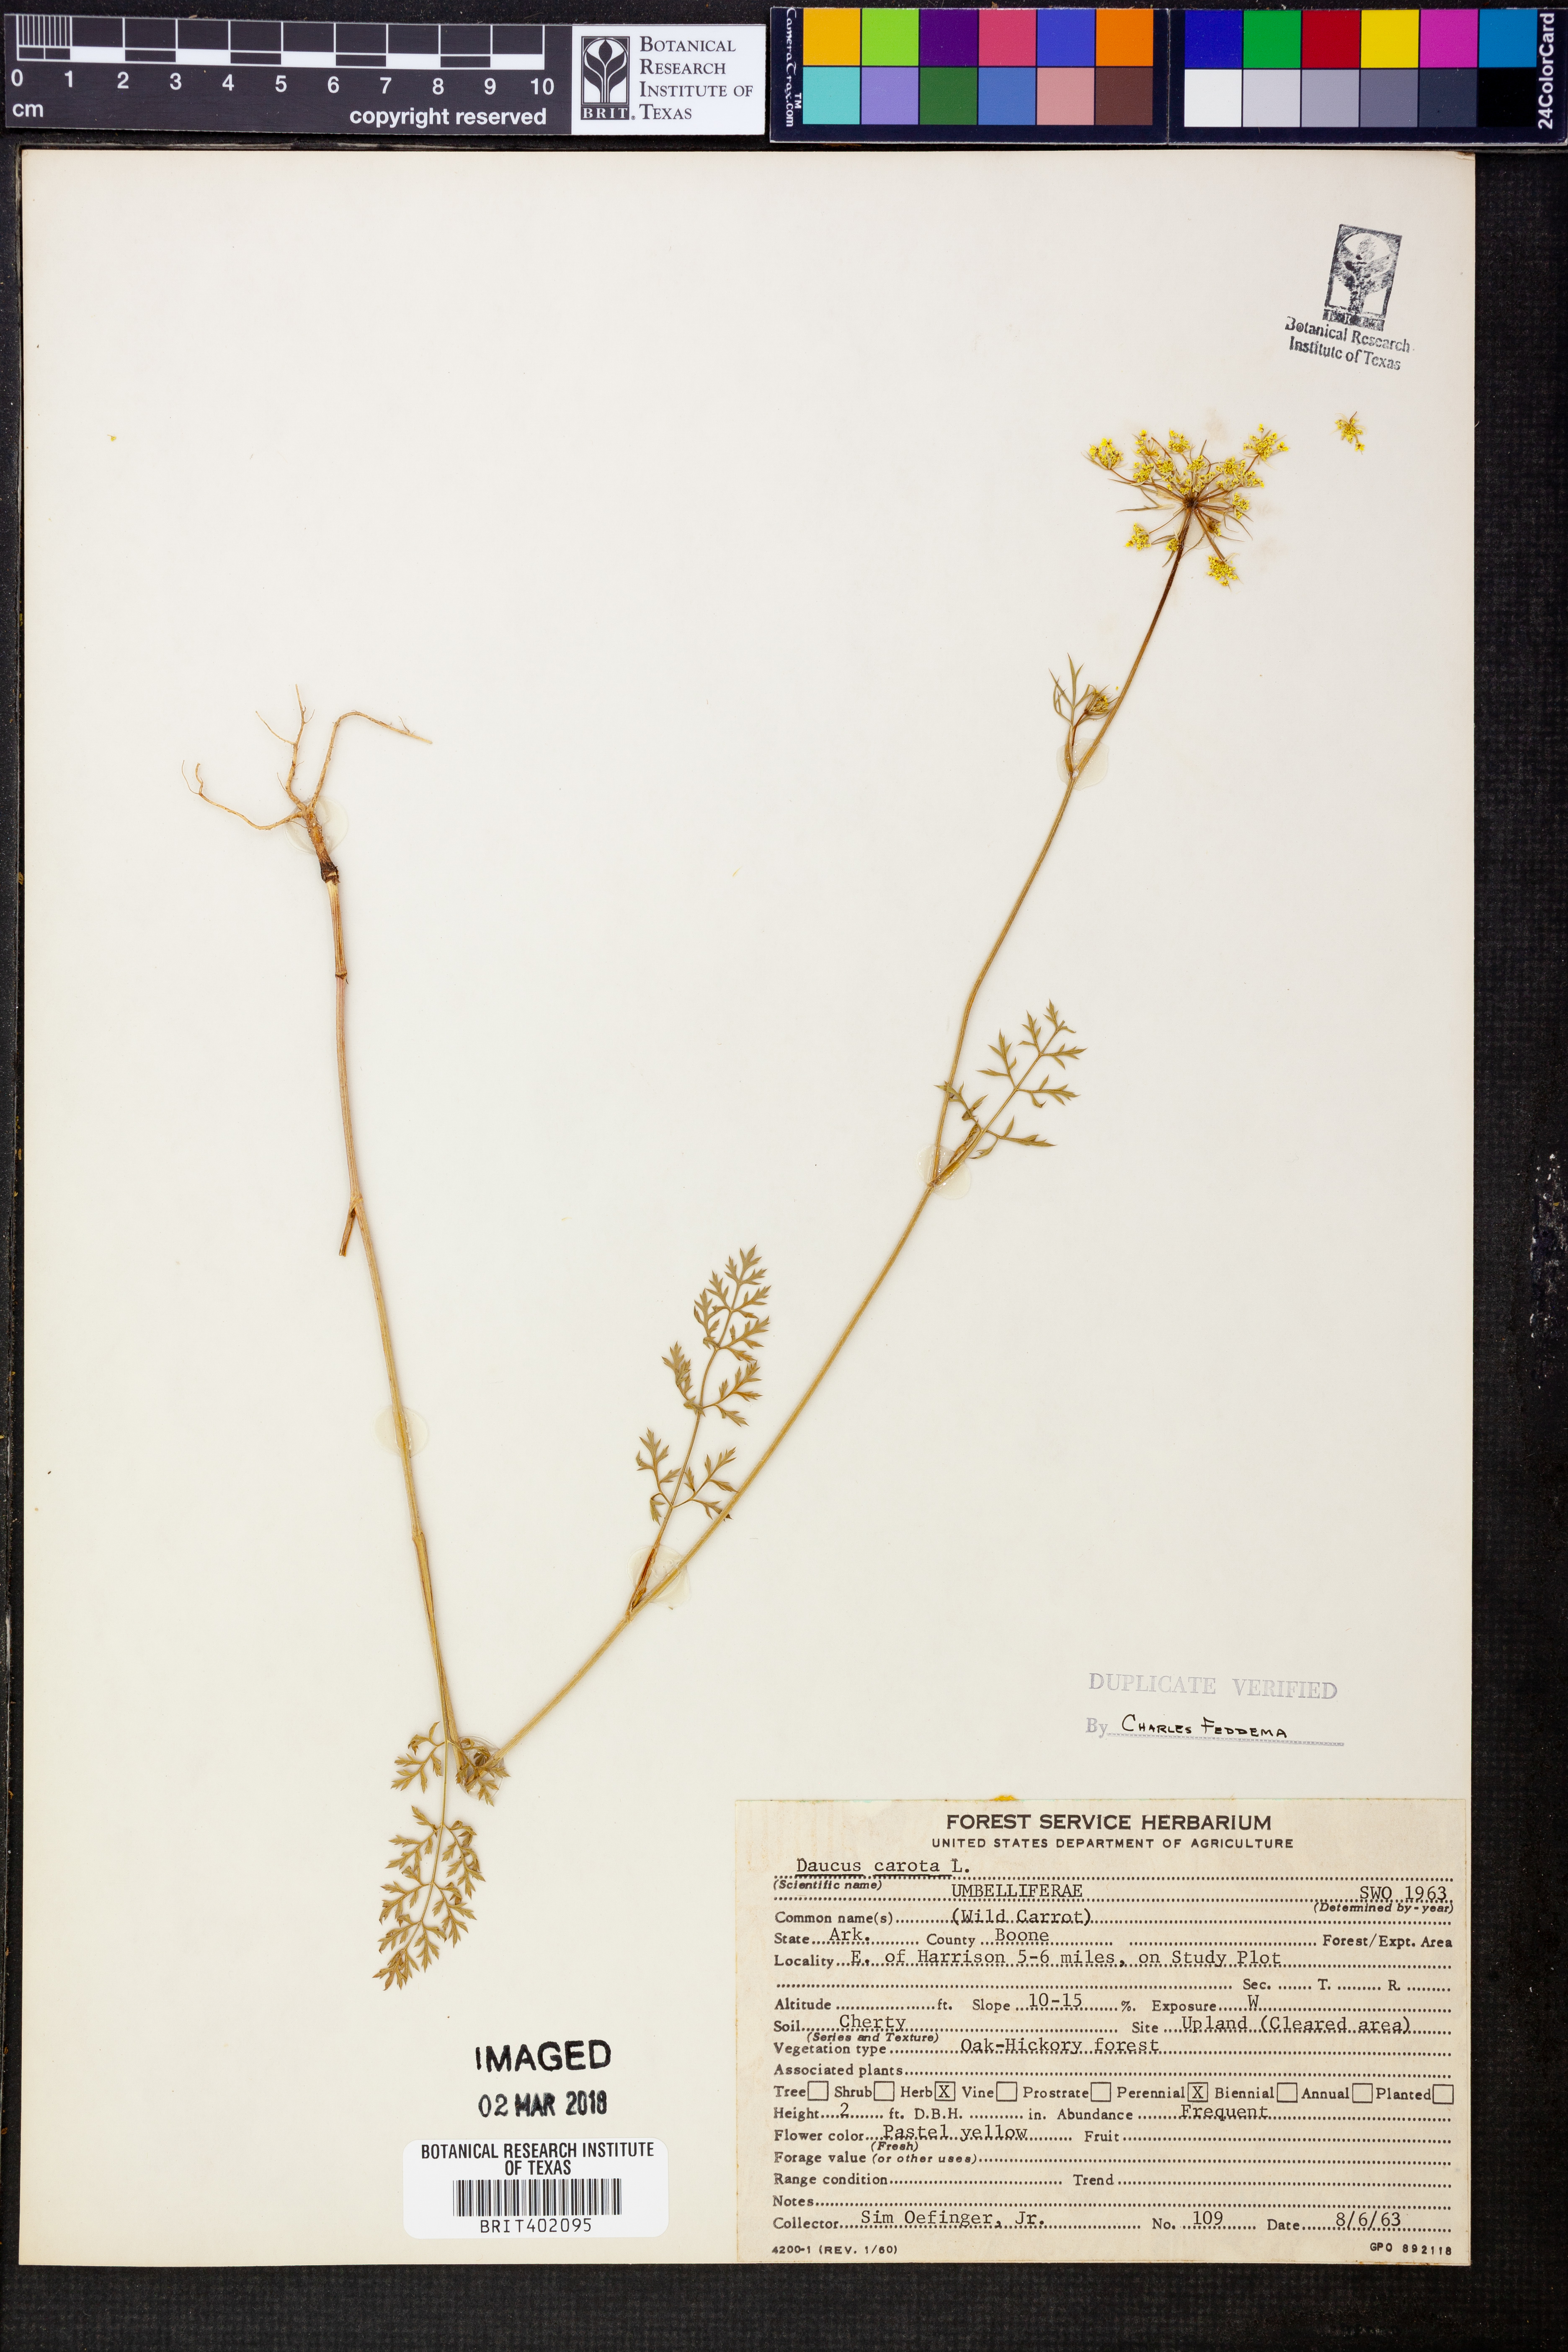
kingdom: Plantae
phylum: Tracheophyta
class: Magnoliopsida
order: Apiales
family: Apiaceae
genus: Daucus
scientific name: Daucus carota
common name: Wild carrot
